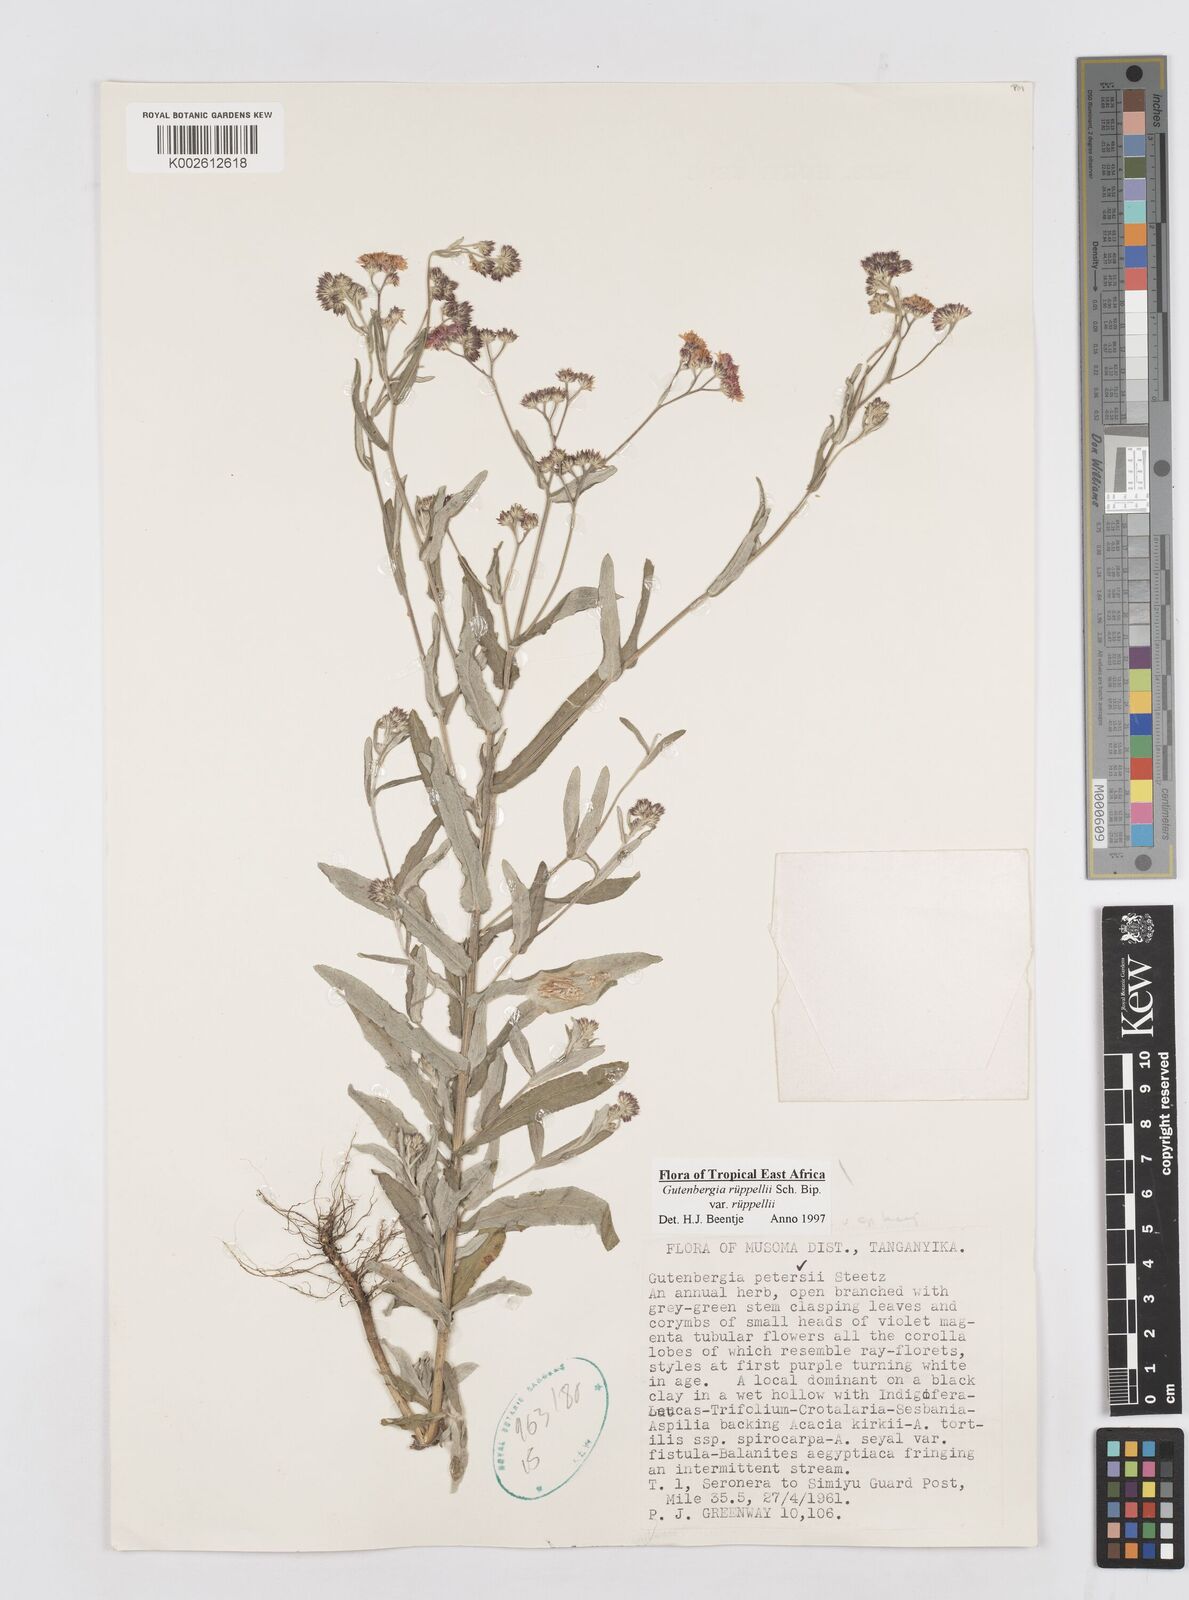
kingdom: Plantae
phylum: Tracheophyta
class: Magnoliopsida
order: Asterales
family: Asteraceae
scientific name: Asteraceae
